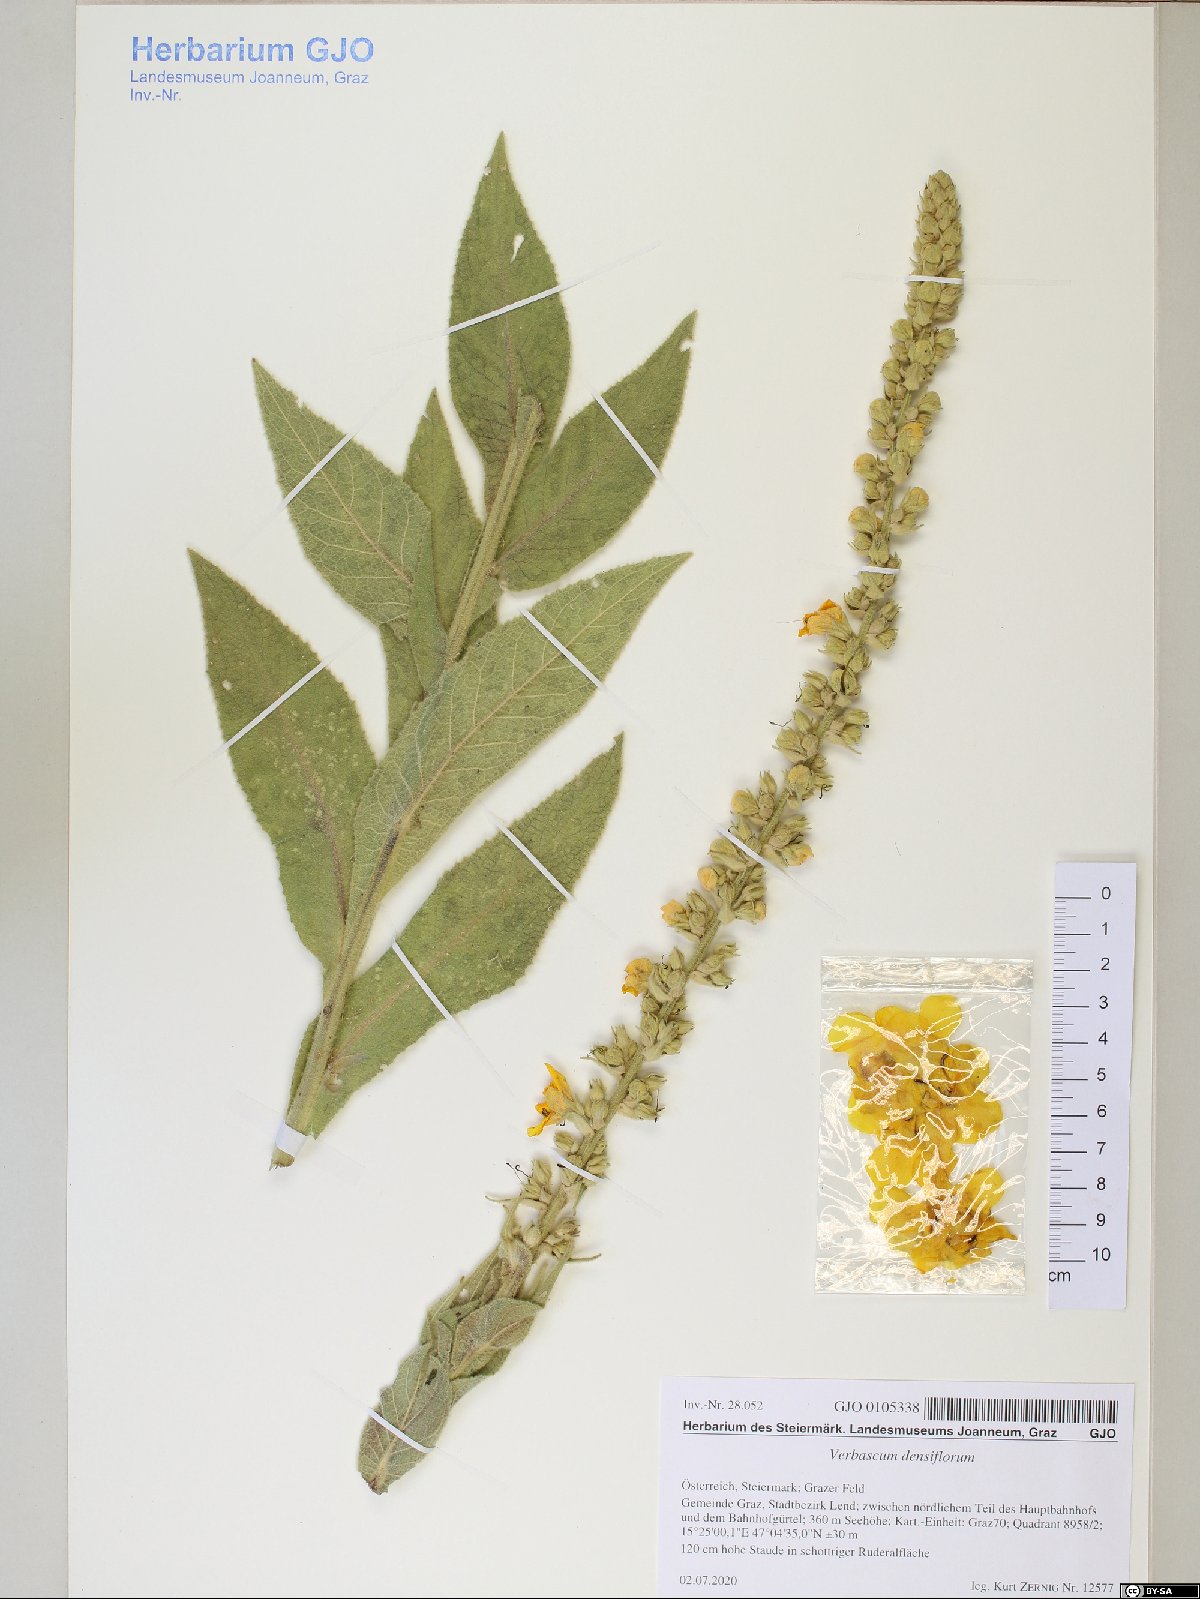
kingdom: Plantae
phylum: Tracheophyta
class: Magnoliopsida
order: Lamiales
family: Scrophulariaceae
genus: Verbascum
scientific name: Verbascum densiflorum
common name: Dense-flowered mullein
